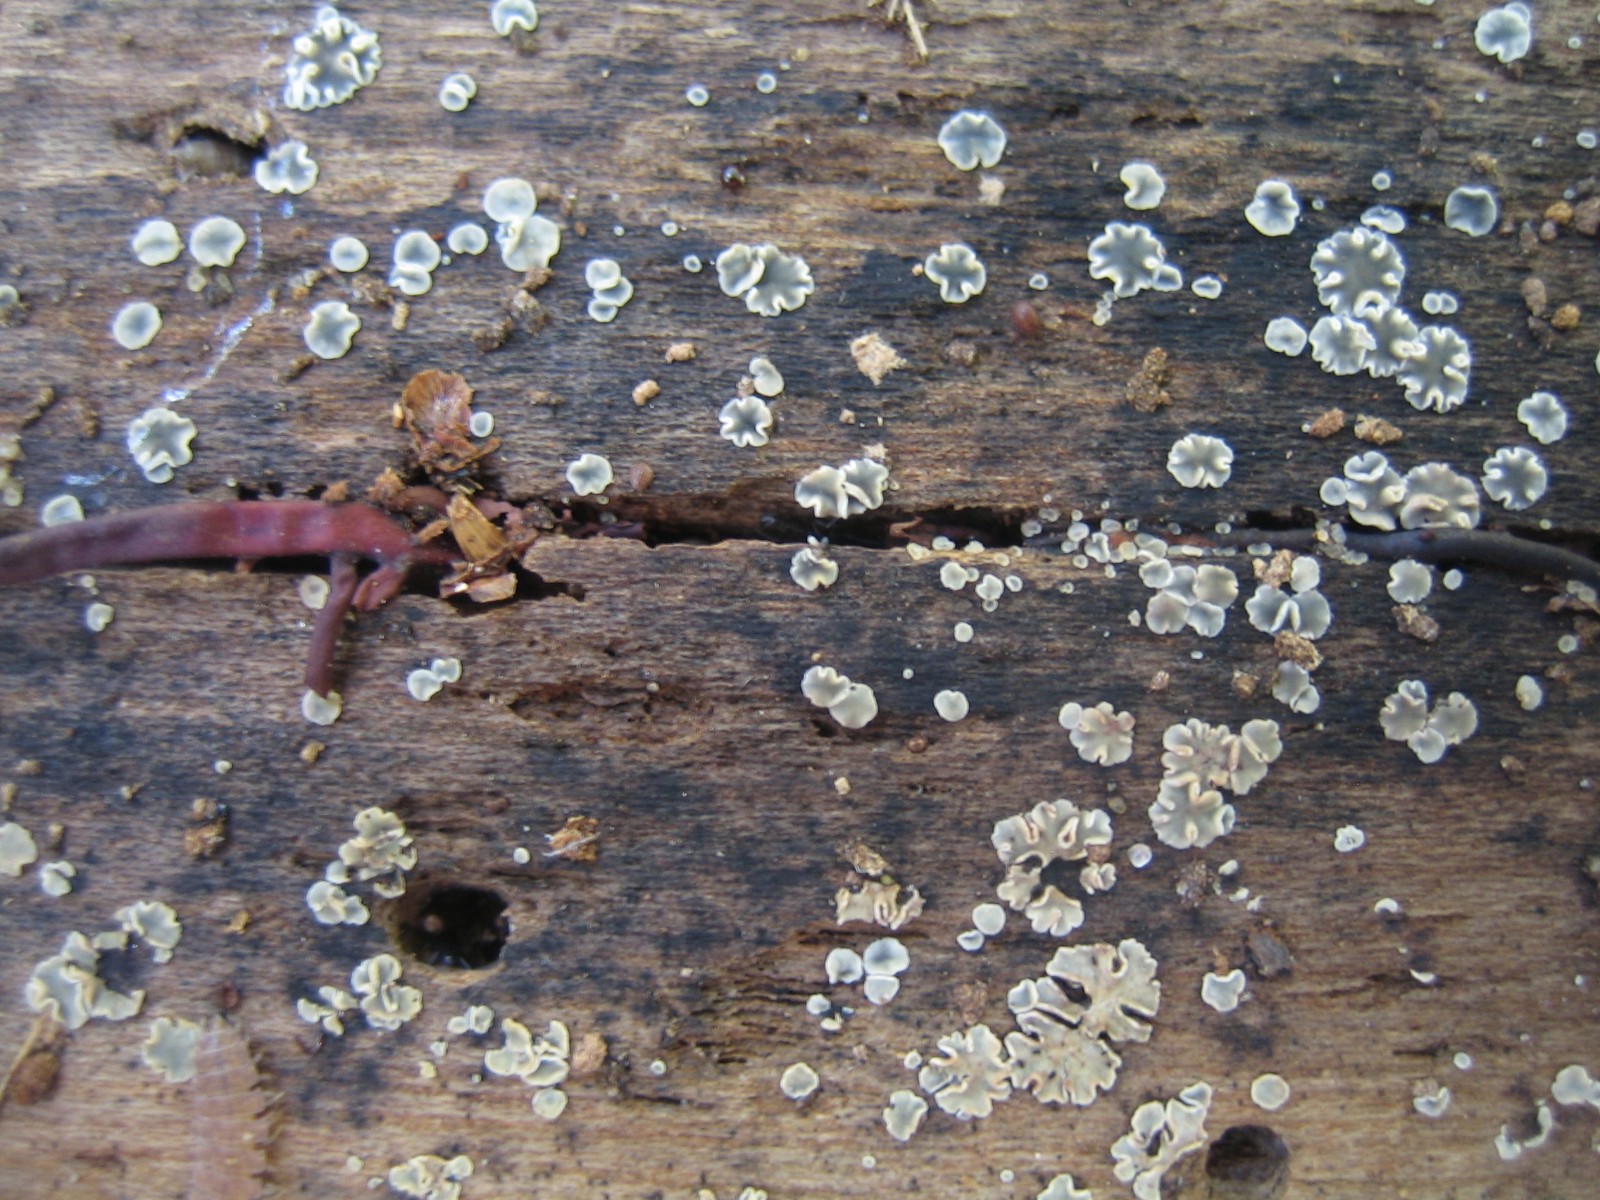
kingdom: Fungi
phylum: Ascomycota
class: Leotiomycetes
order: Helotiales
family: Mollisiaceae
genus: Mollisia
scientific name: Mollisia cinerea
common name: almindelig gråskive
